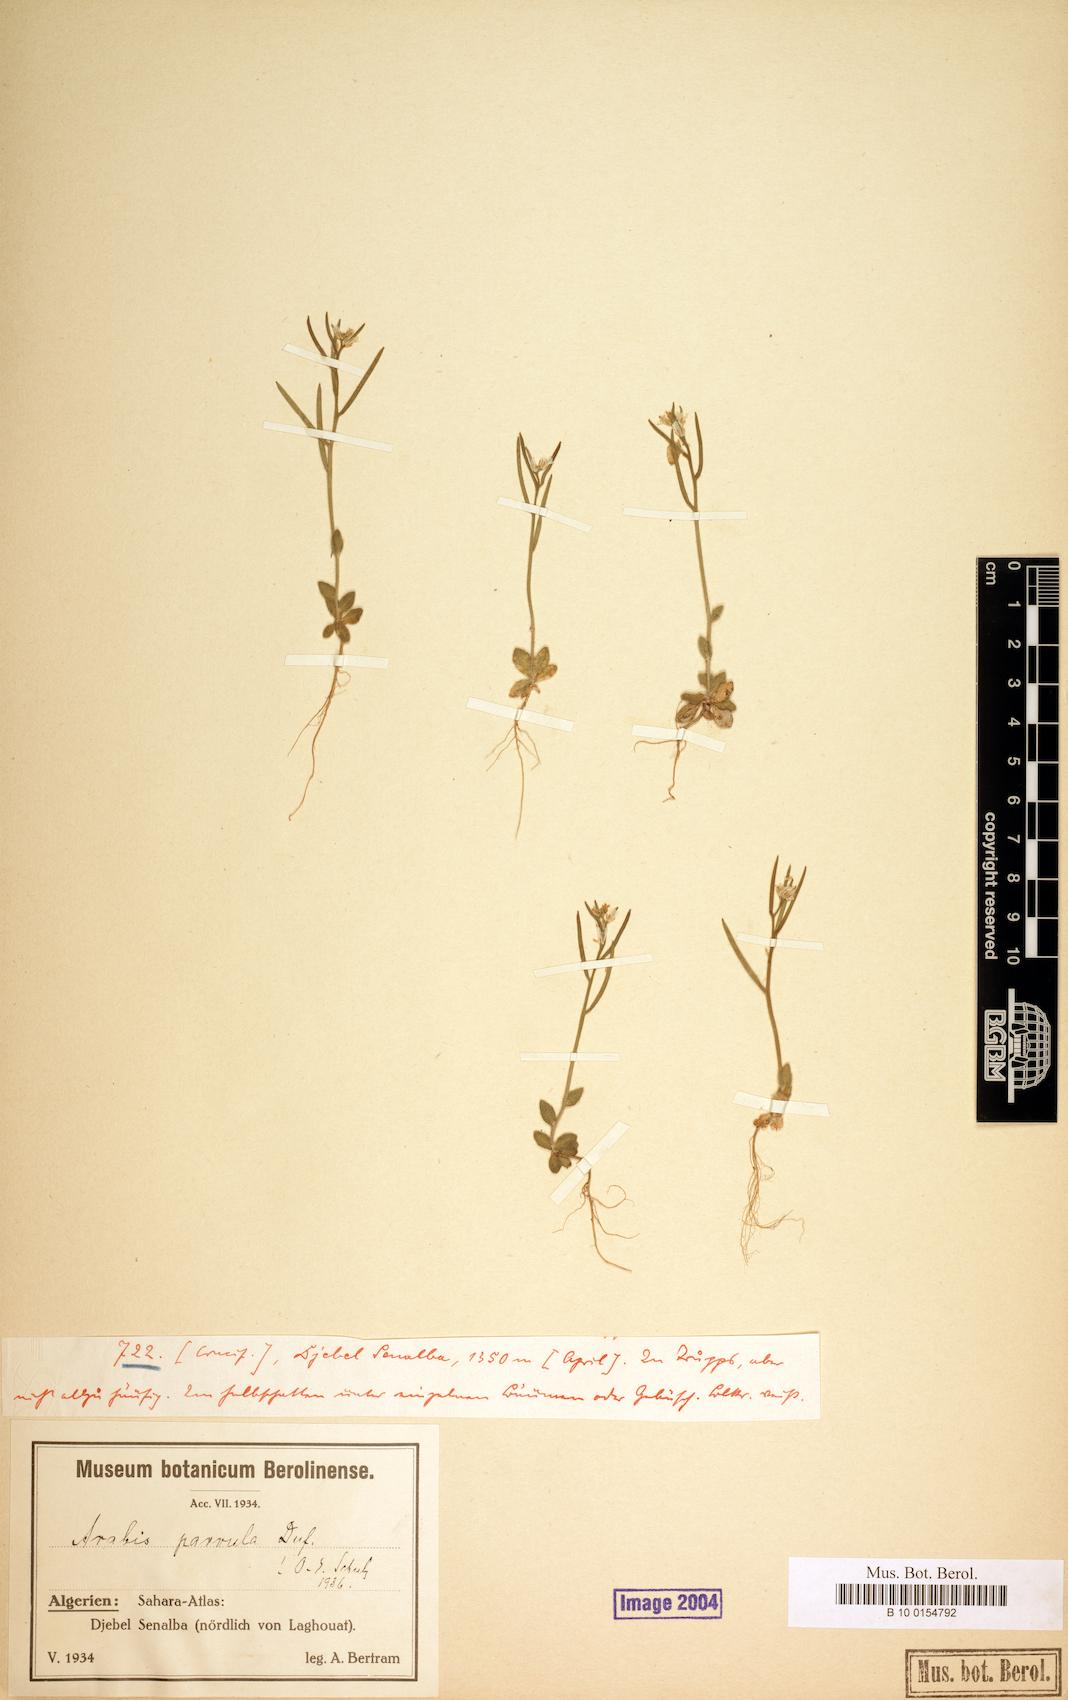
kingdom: Plantae
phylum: Tracheophyta
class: Magnoliopsida
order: Brassicales
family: Brassicaceae
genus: Arabis
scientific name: Arabis parvula
